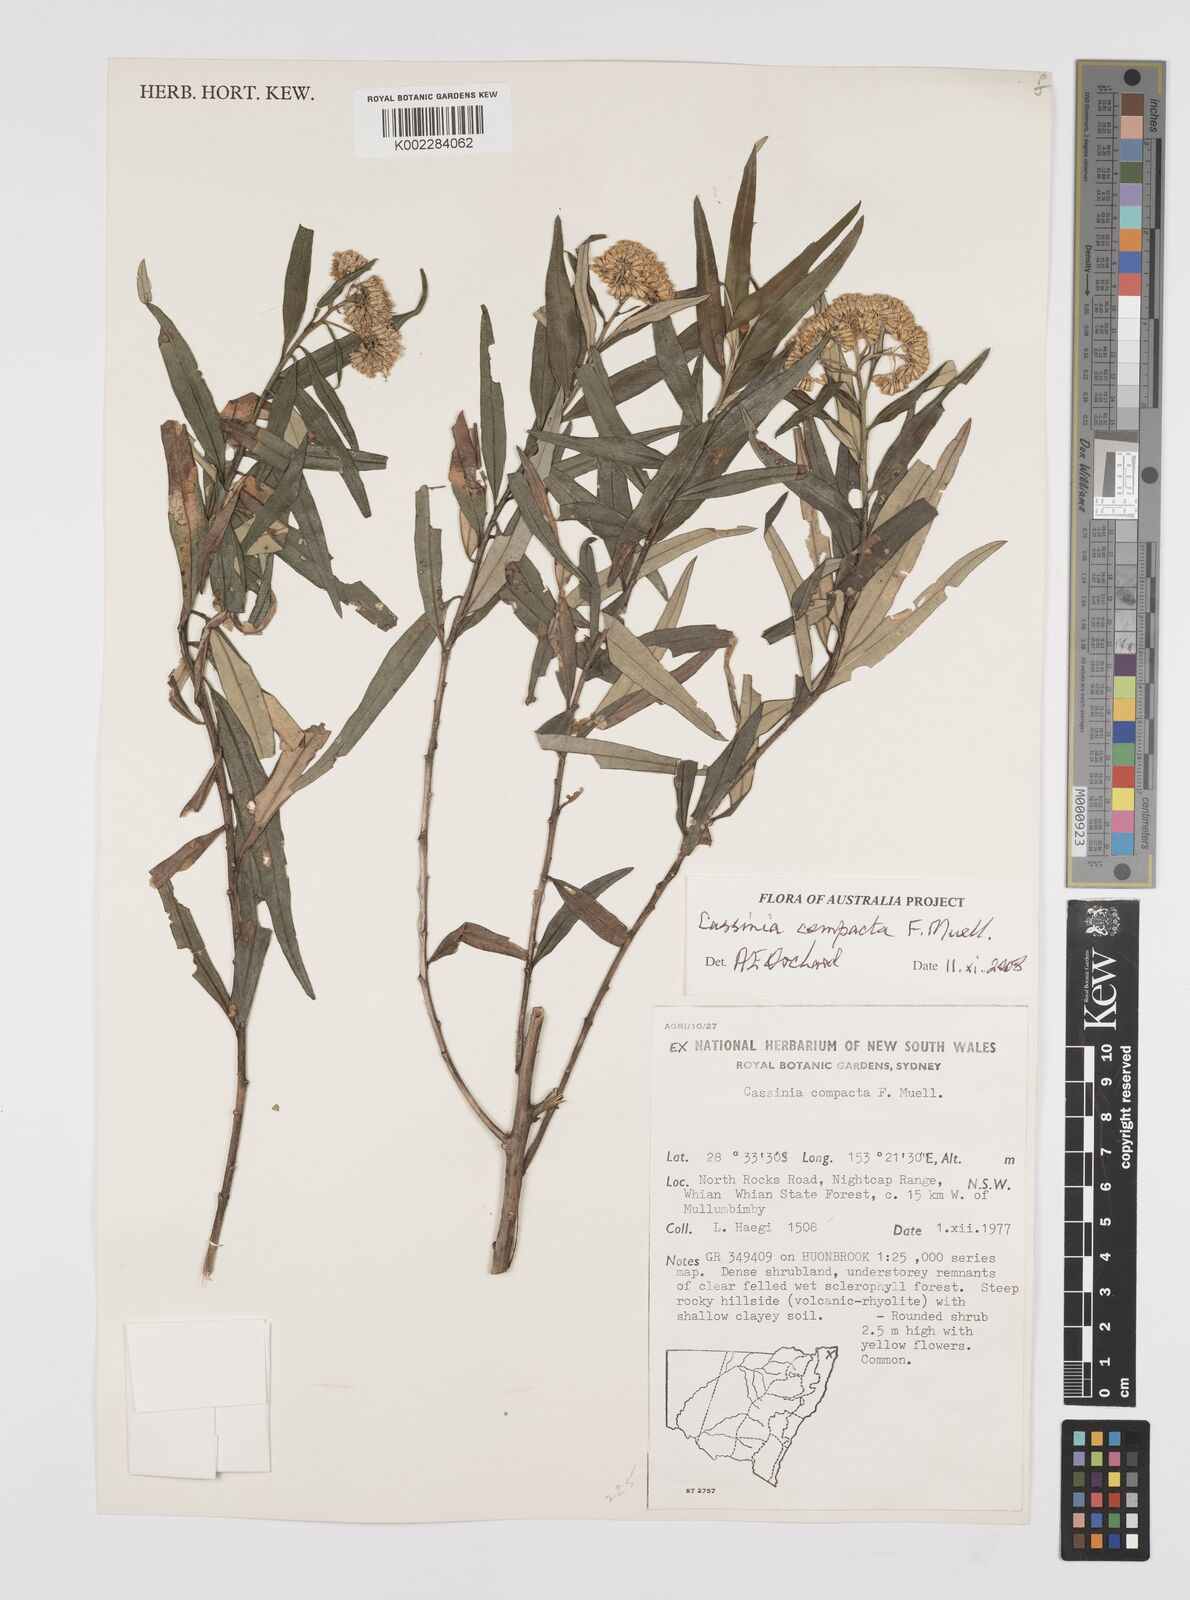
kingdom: Plantae
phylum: Tracheophyta
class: Magnoliopsida
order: Asterales
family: Asteraceae
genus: Cassinia
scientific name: Cassinia compacta
